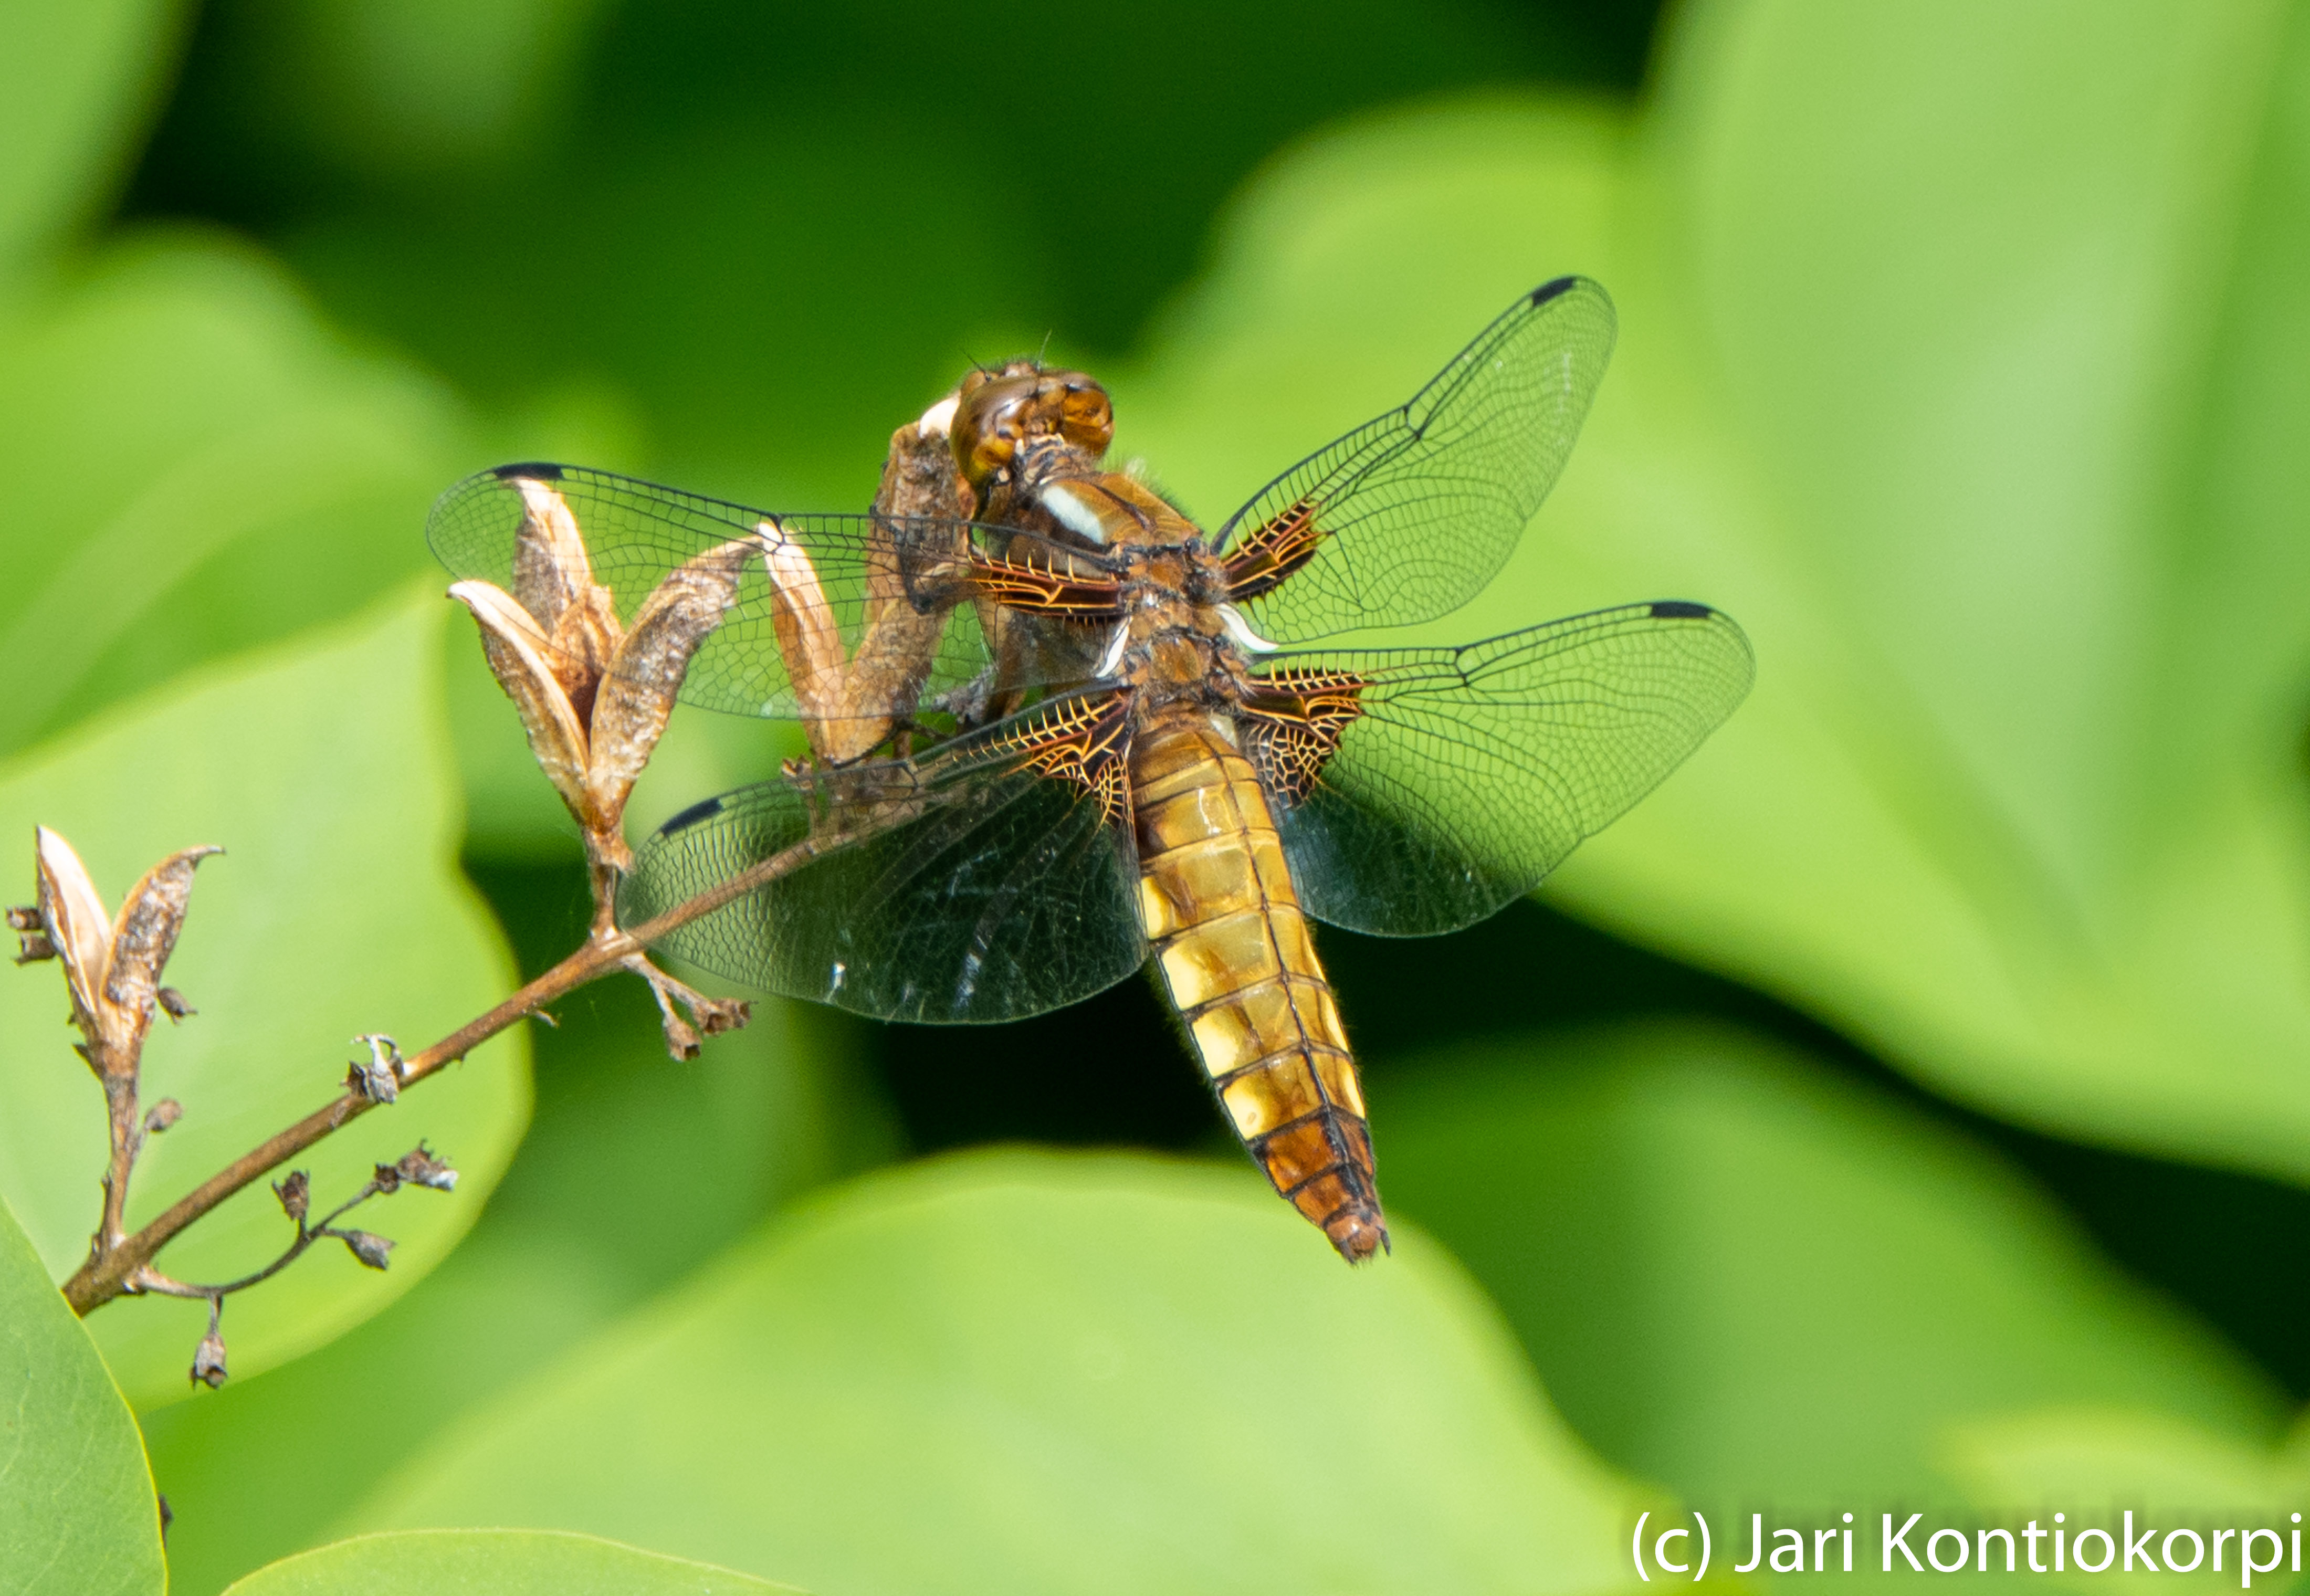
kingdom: Animalia
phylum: Arthropoda
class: Insecta
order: Odonata
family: Libellulidae
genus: Libellula
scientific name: Libellula depressa
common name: Broad-bodied chaser
